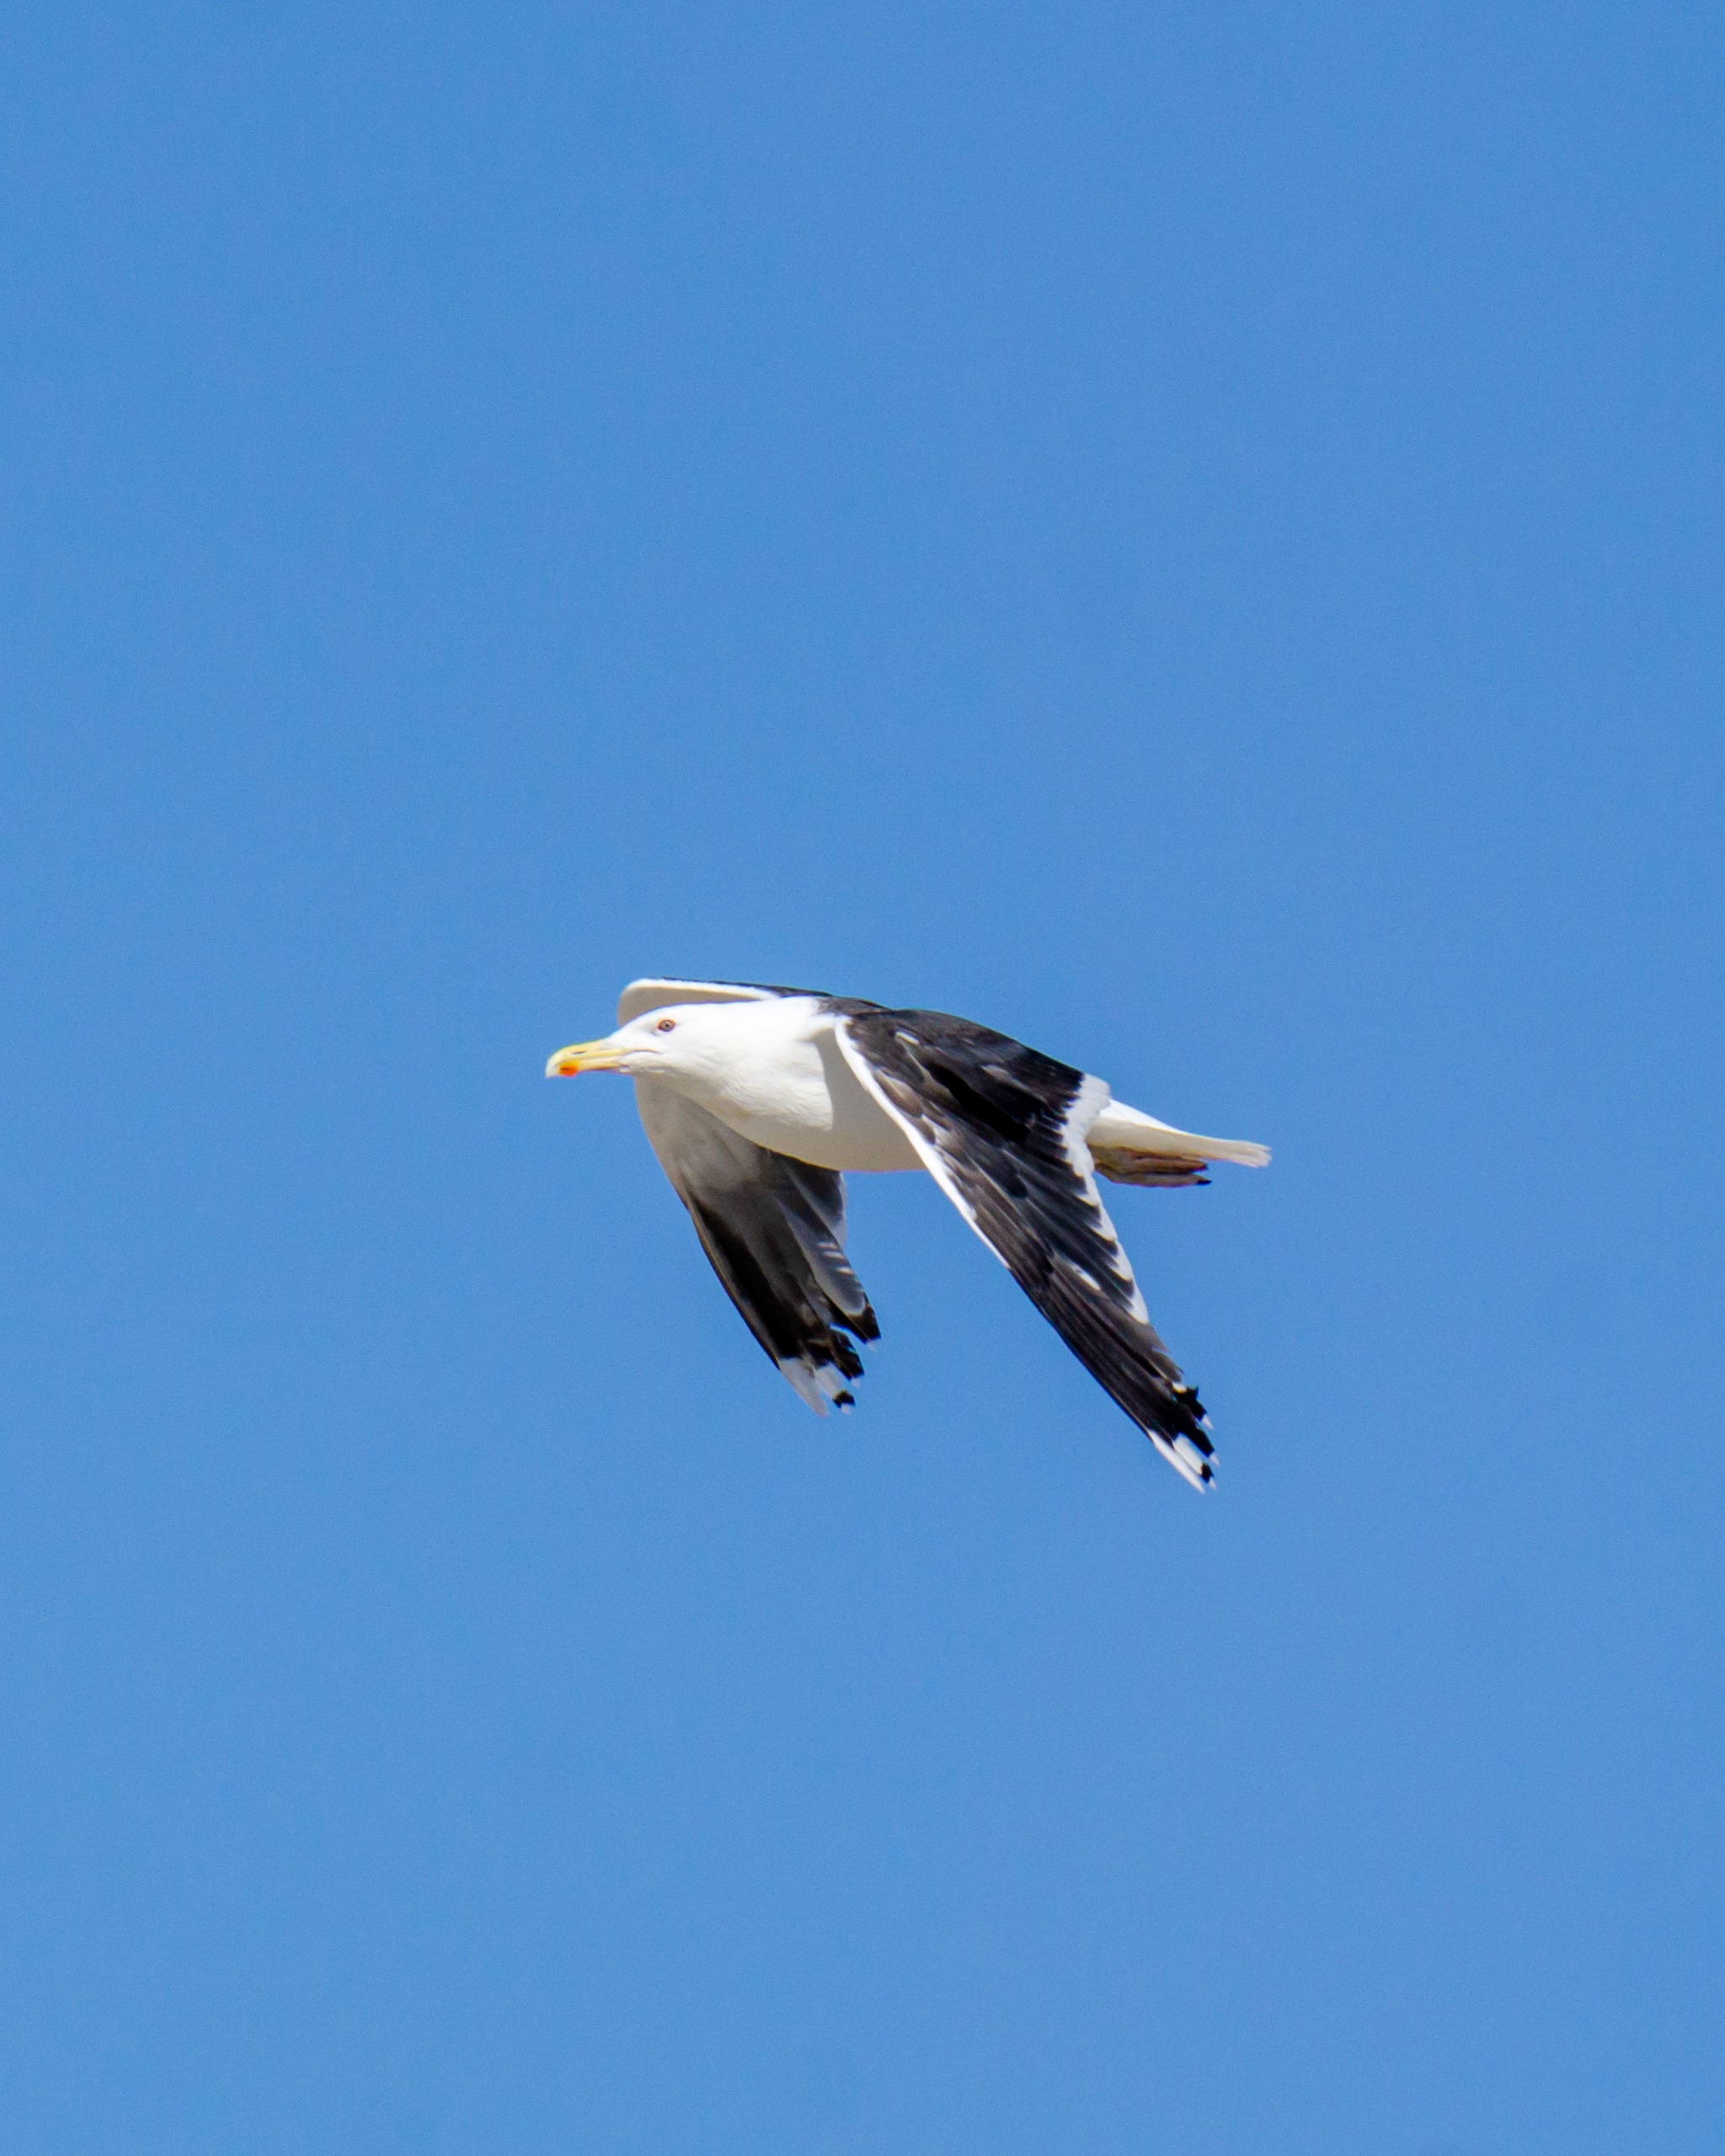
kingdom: Animalia
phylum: Chordata
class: Aves
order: Charadriiformes
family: Laridae
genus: Larus
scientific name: Larus marinus
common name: Svartbag
